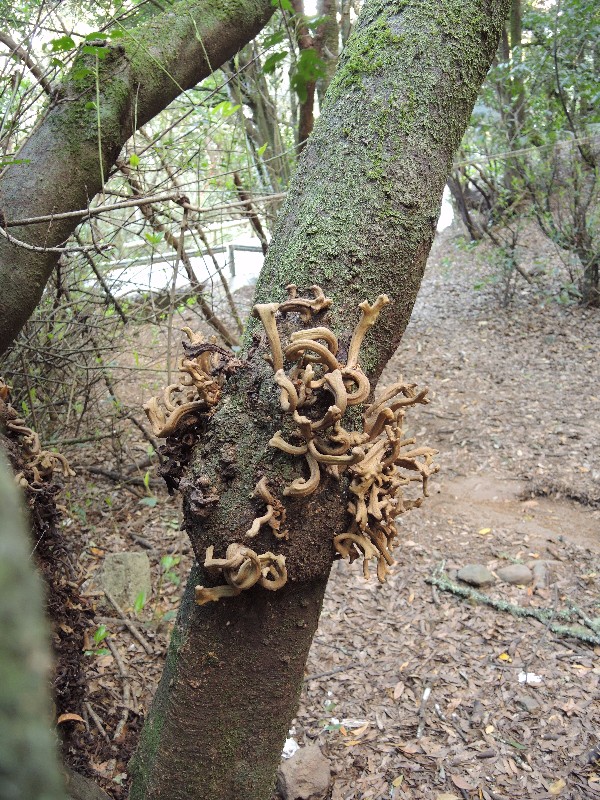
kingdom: Fungi
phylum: Basidiomycota
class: Exobasidiomycetes
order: Exobasidiales
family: Laurobasidiaceae
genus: Laurobasidium
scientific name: Laurobasidium lauri
